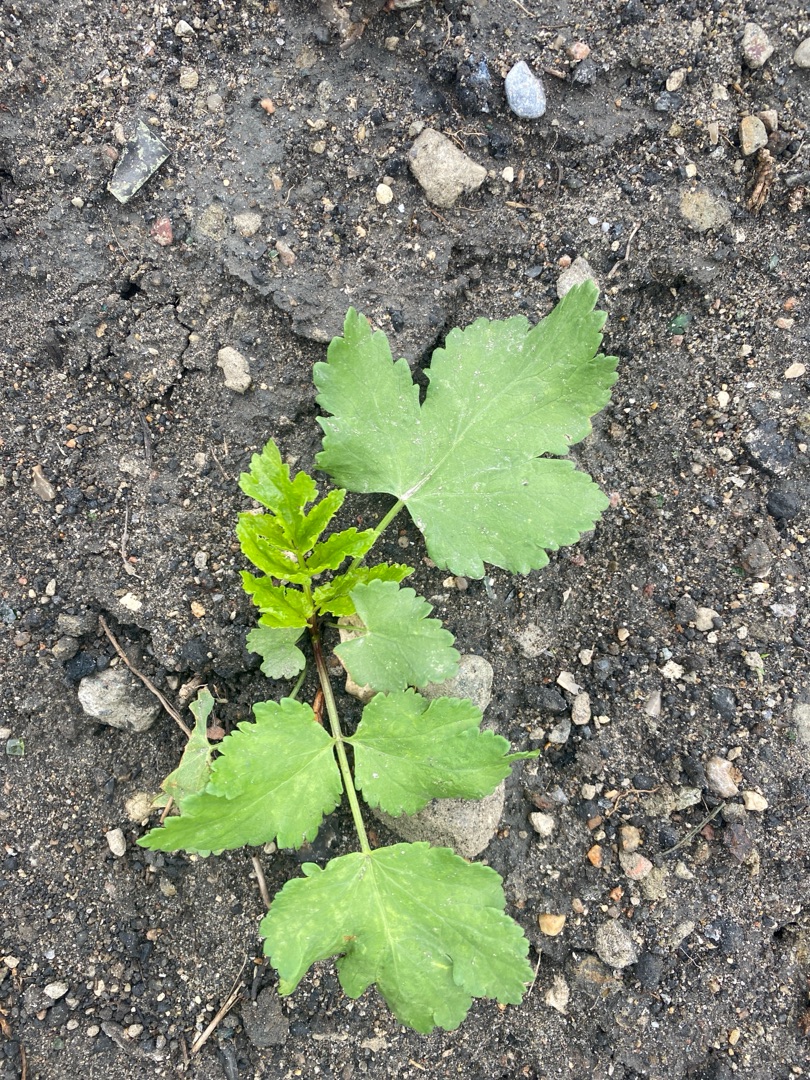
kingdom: Plantae
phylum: Tracheophyta
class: Magnoliopsida
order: Apiales
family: Apiaceae
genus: Pastinaca
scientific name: Pastinaca sativa
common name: Pastinak
